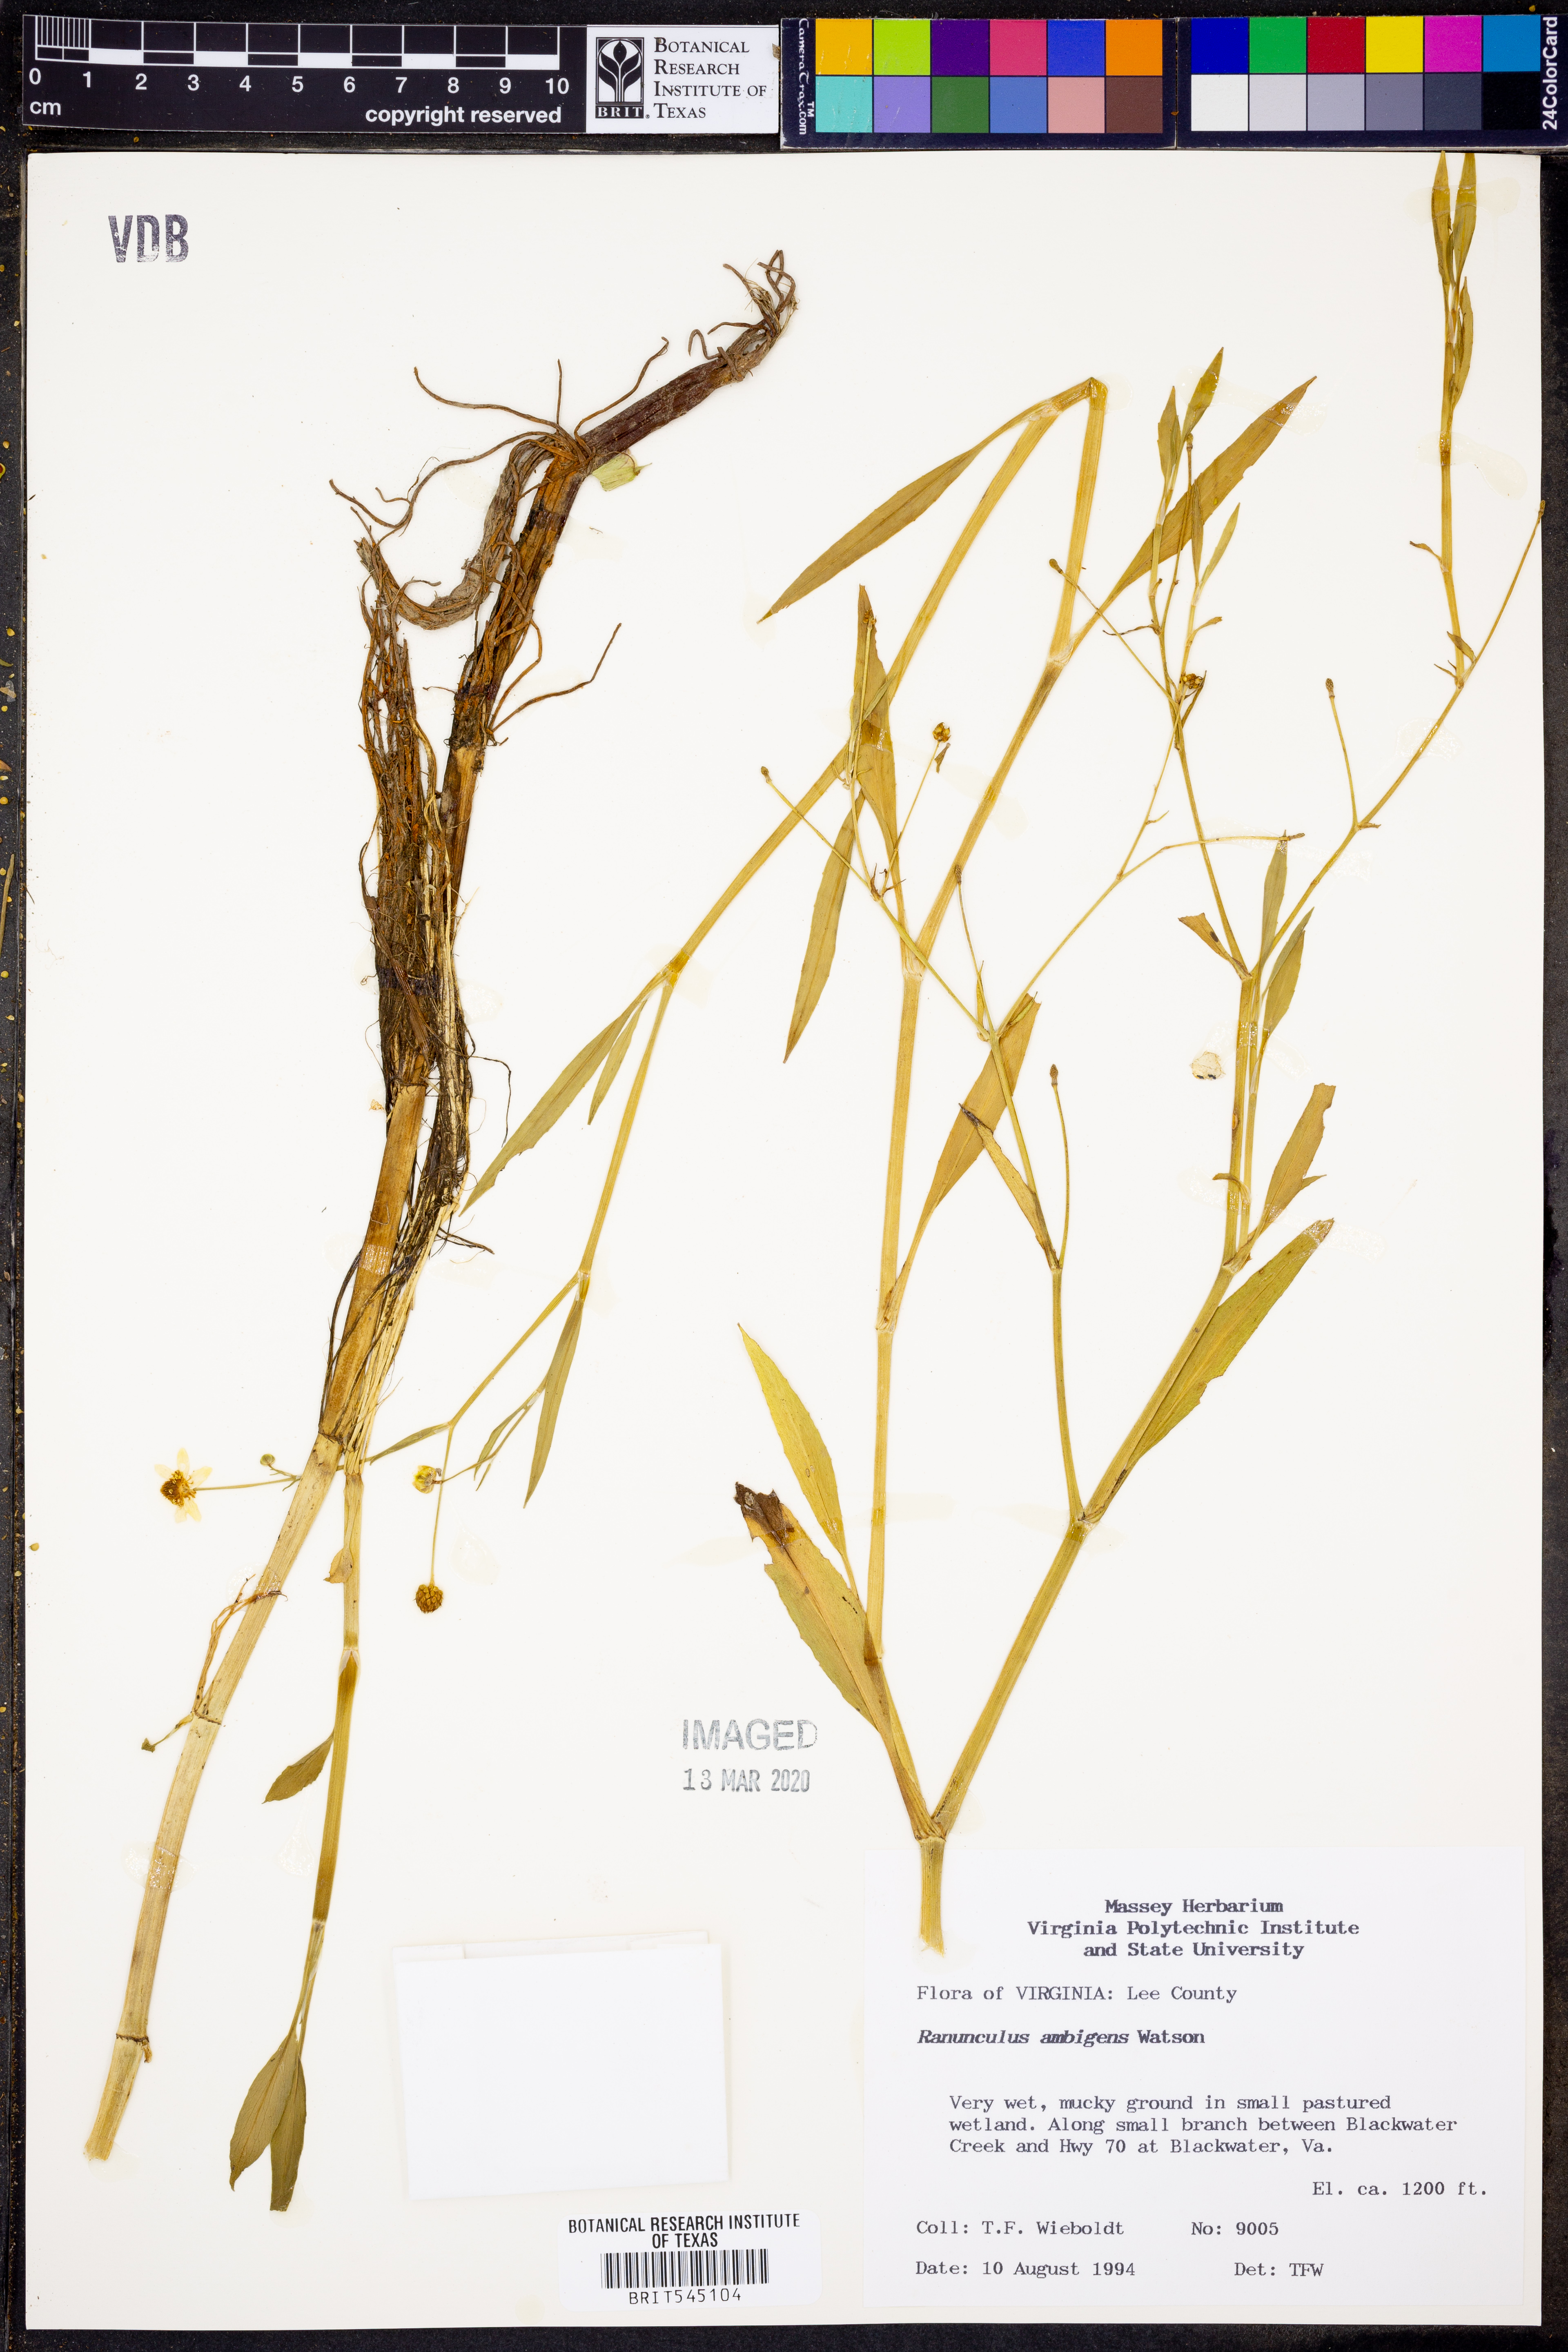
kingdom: Plantae
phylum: Tracheophyta
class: Magnoliopsida
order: Ranunculales
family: Ranunculaceae
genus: Ranunculus
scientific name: Ranunculus ambigens
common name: Water-plantain crowfoot
